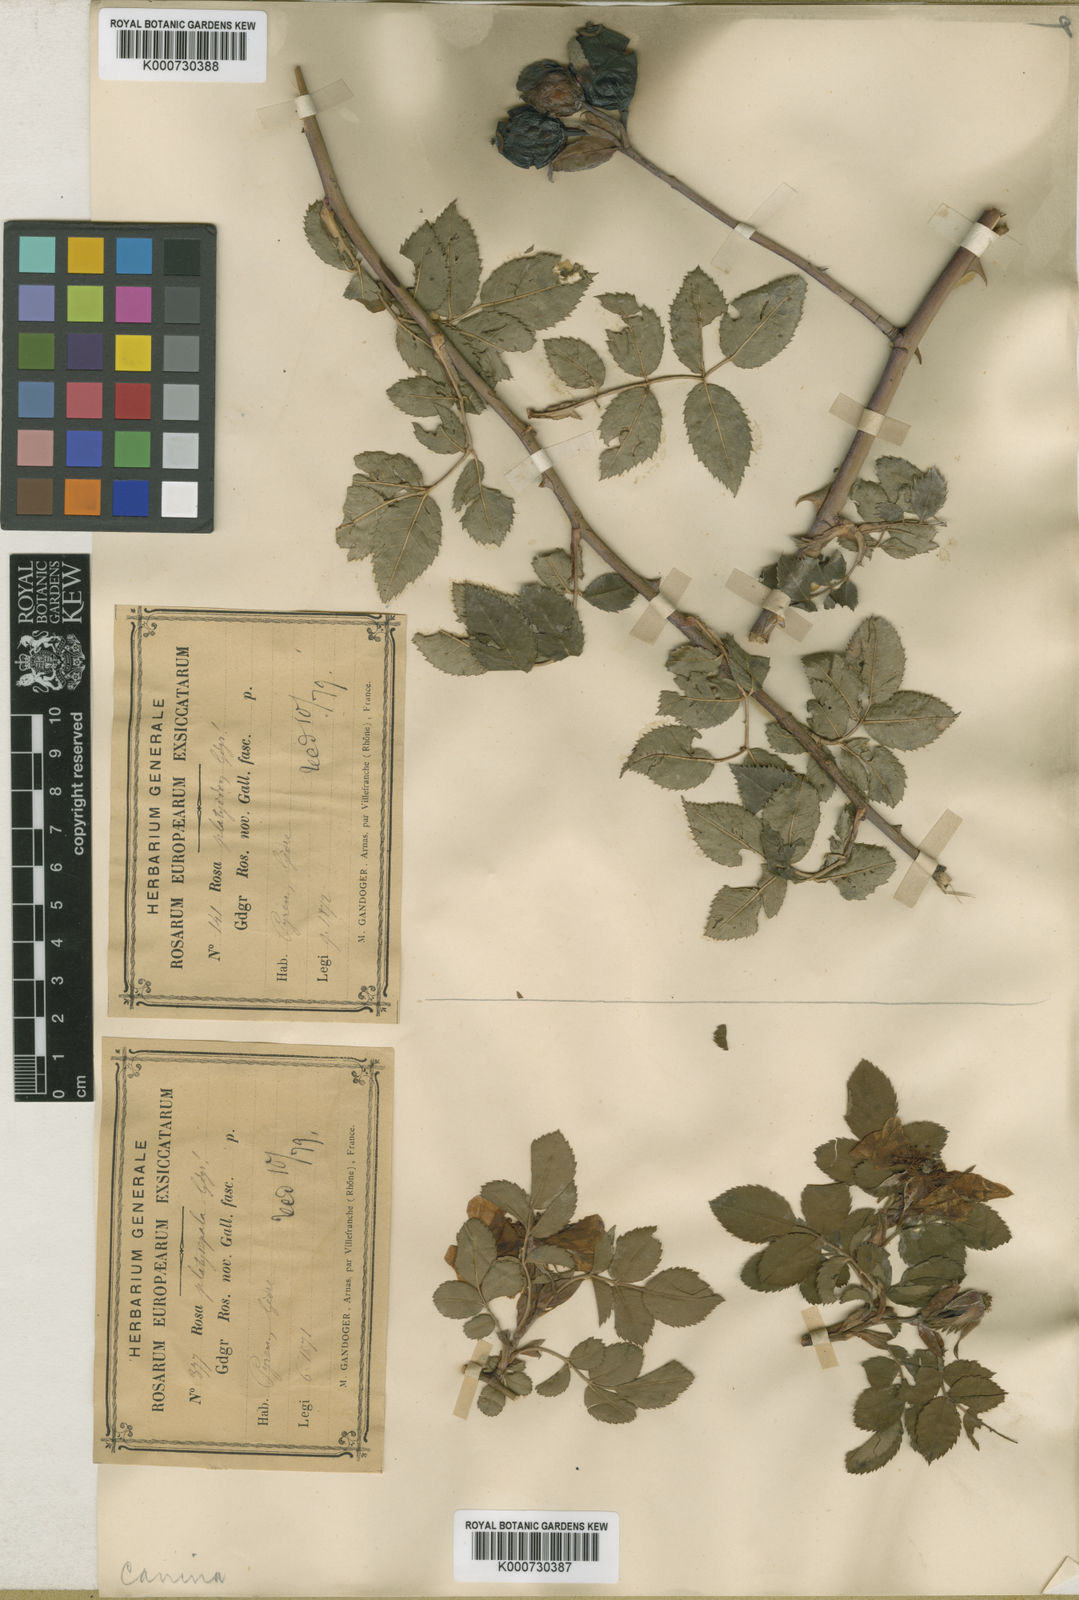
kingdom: Plantae
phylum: Tracheophyta
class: Magnoliopsida
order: Rosales
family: Rosaceae
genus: Rosa
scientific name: Rosa canina
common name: Dog rose
